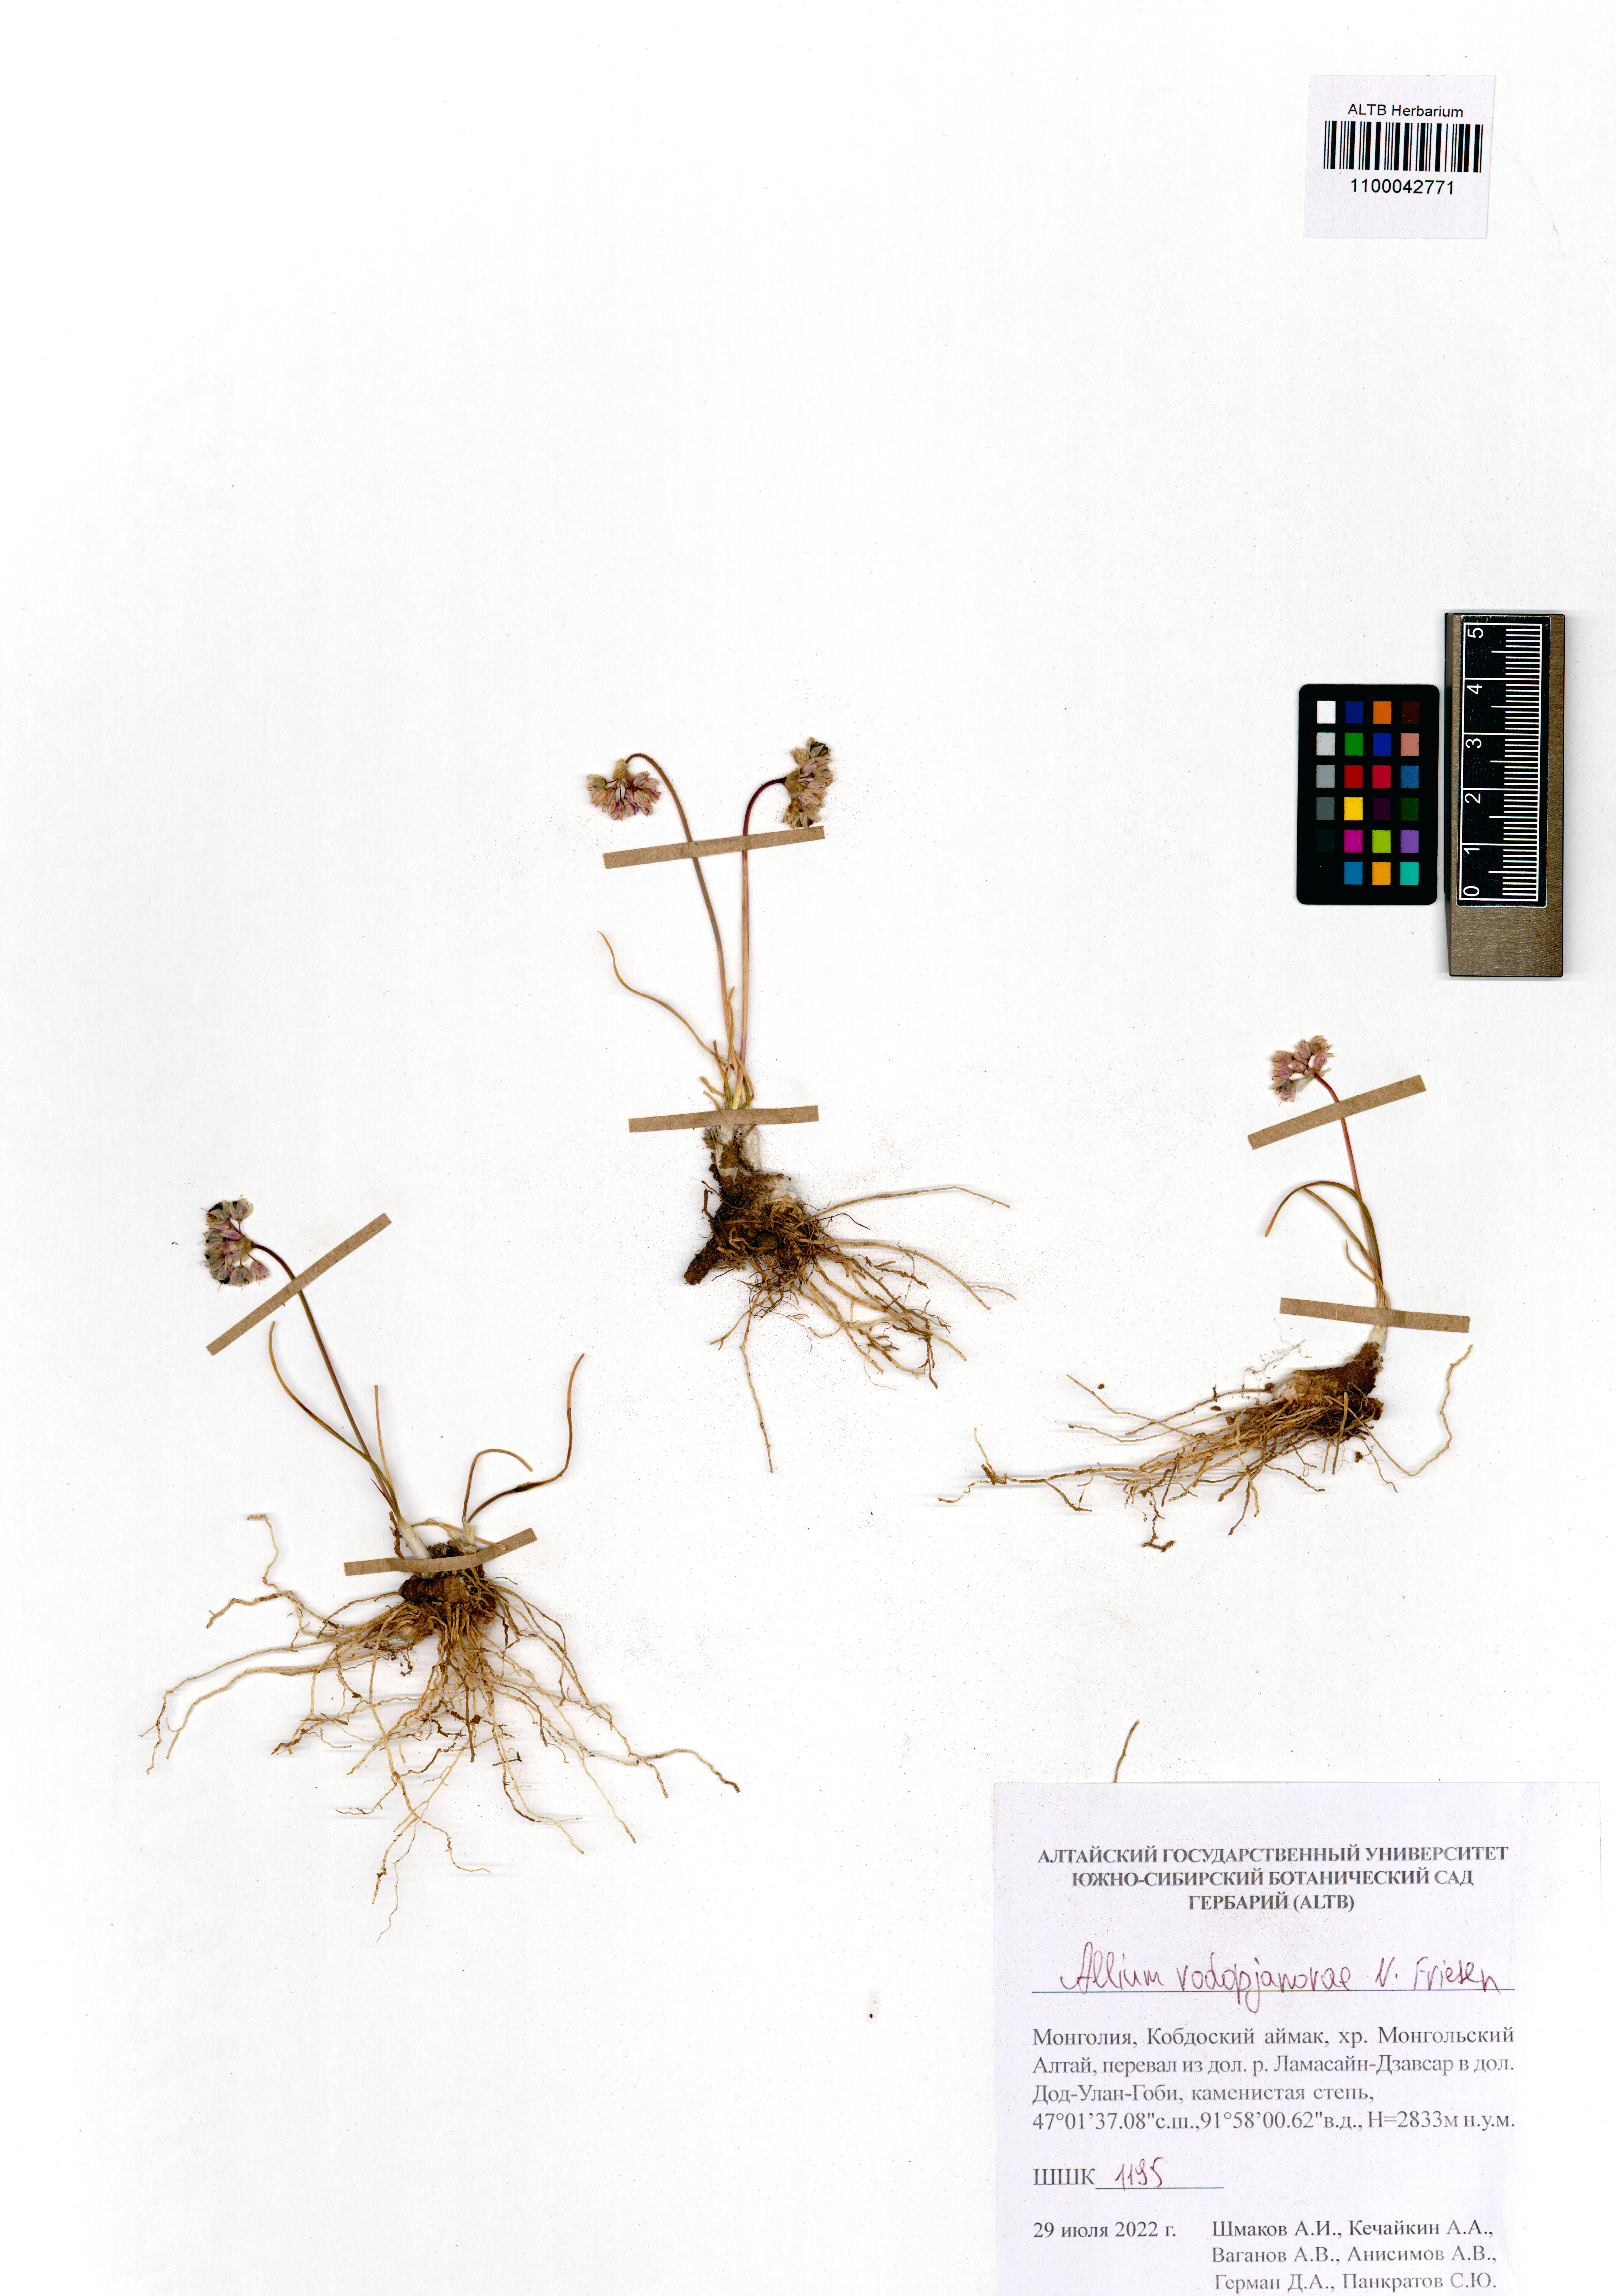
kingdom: Plantae
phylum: Tracheophyta
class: Liliopsida
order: Asparagales
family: Amaryllidaceae
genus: Allium
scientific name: Allium vodopjanovae
